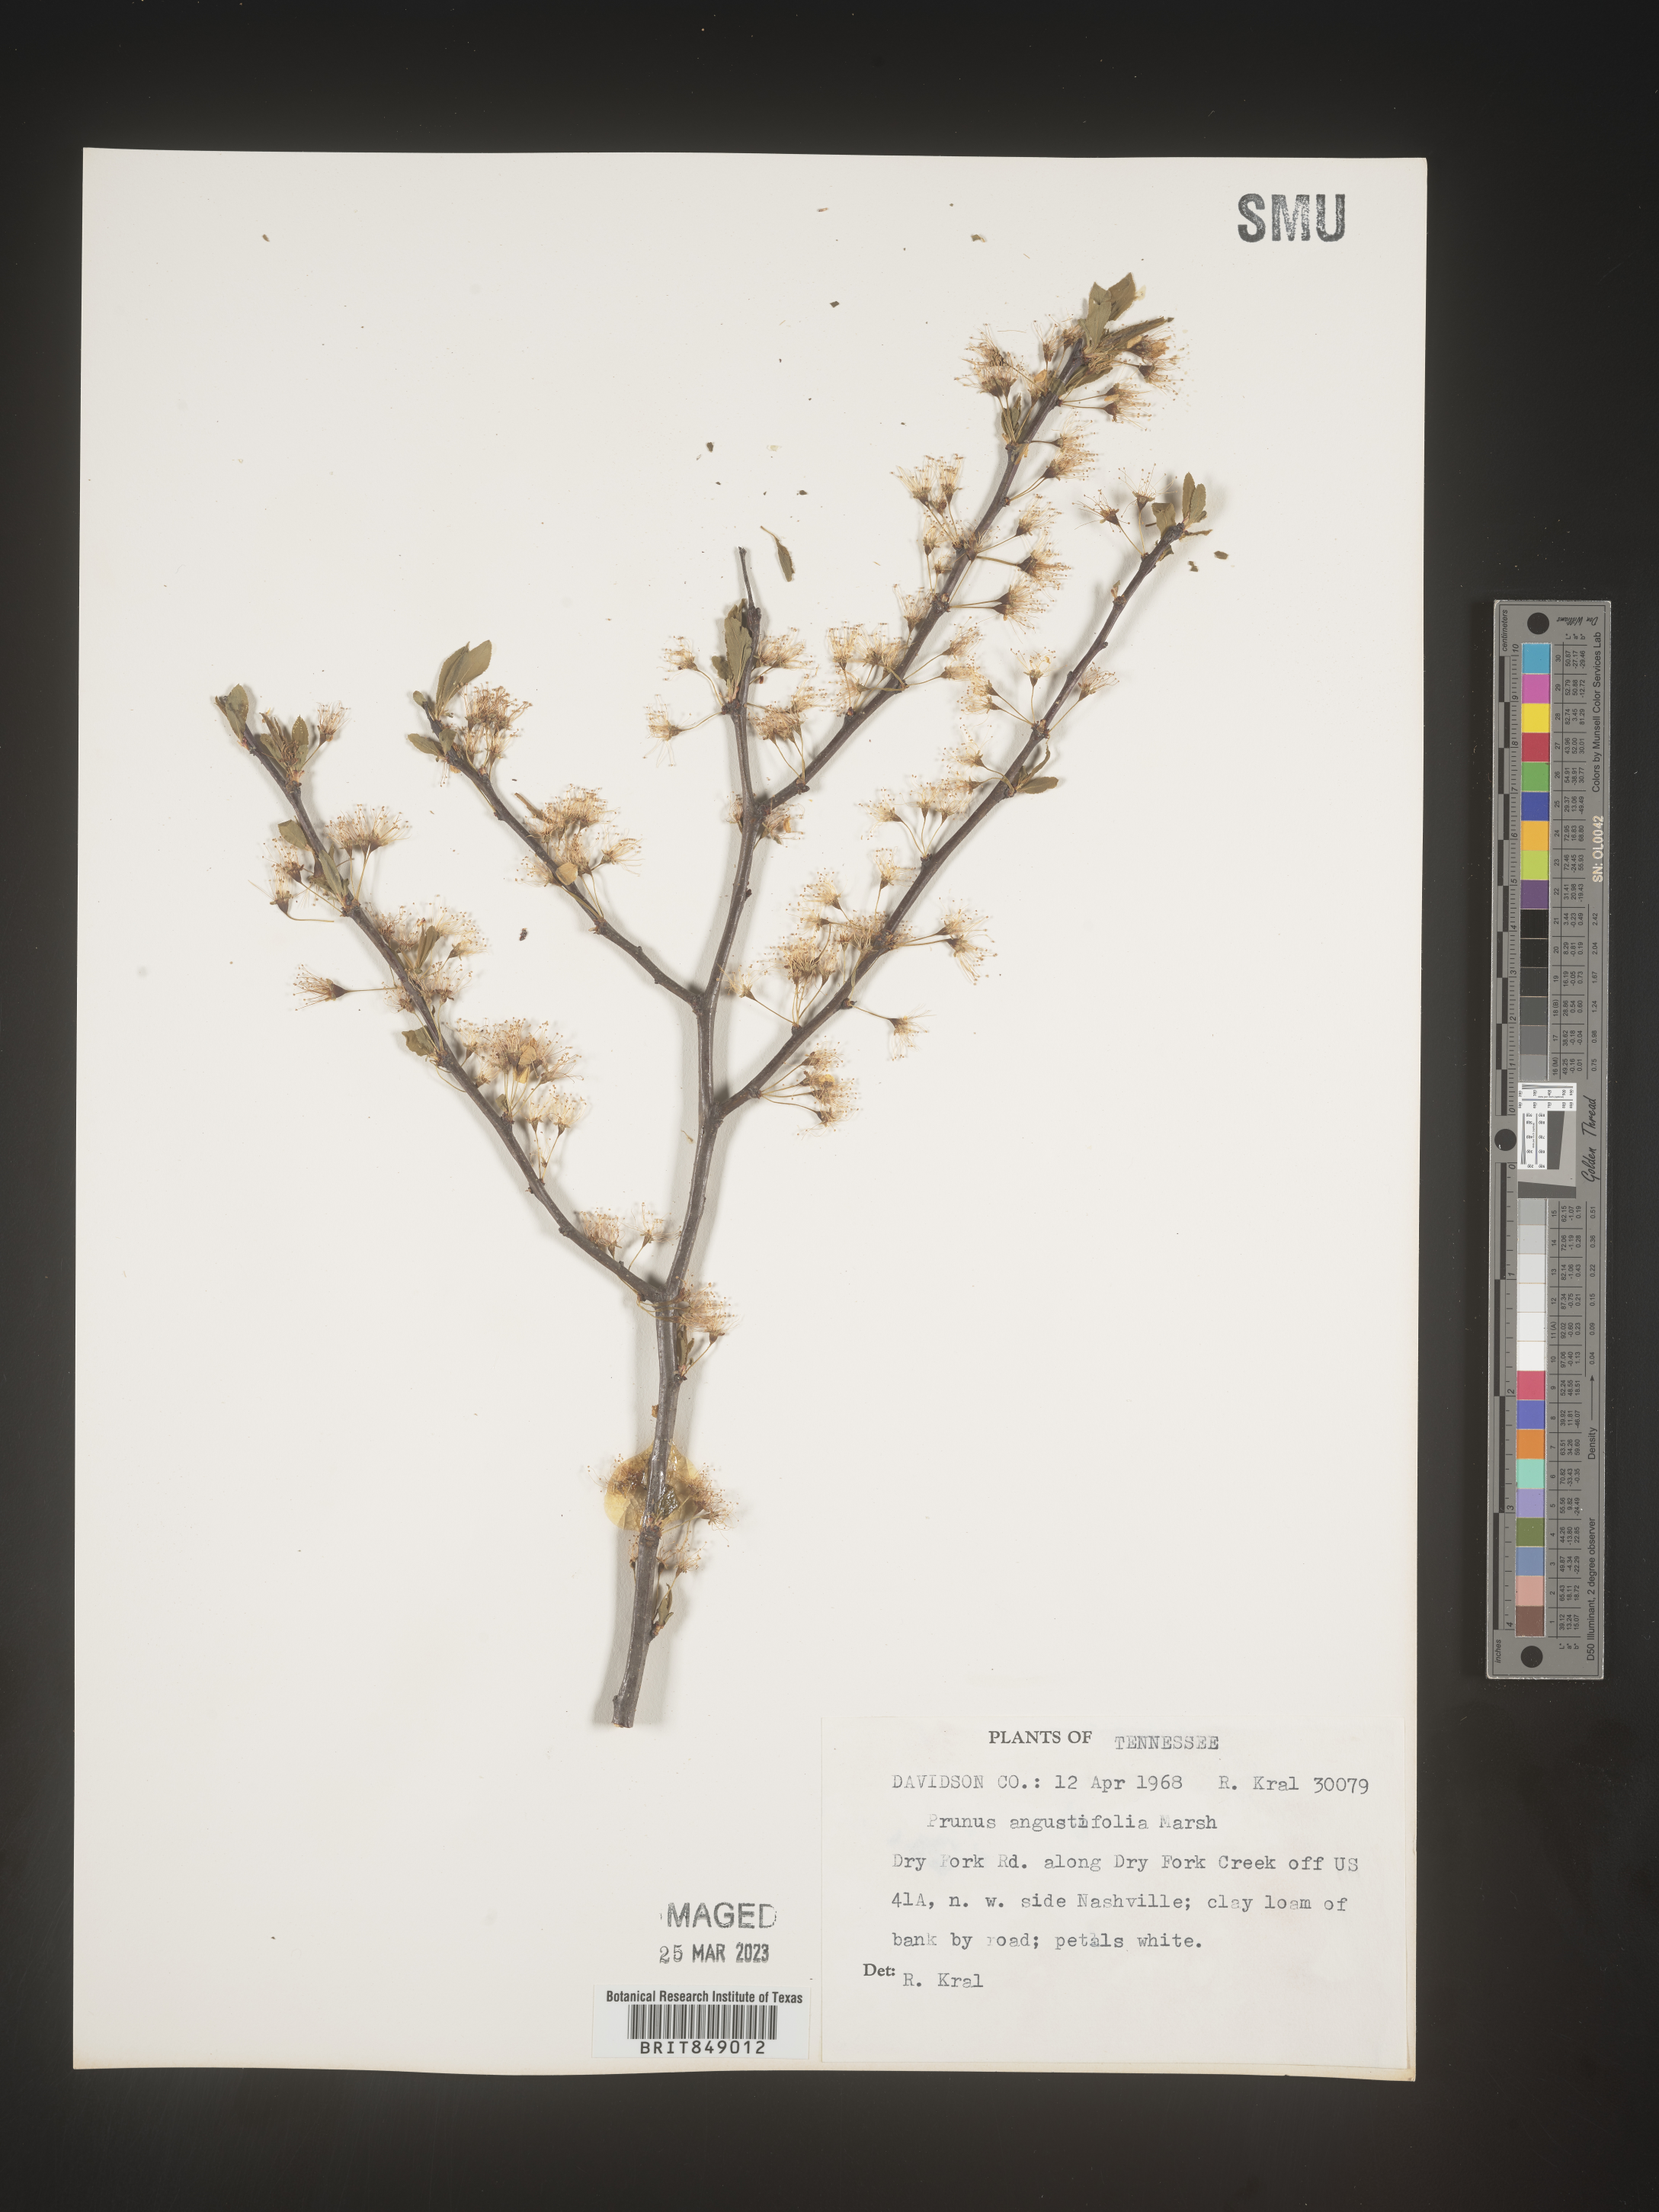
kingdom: Plantae
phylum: Tracheophyta
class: Magnoliopsida
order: Rosales
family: Rosaceae
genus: Prunus
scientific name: Prunus angustifolia
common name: Cherokee plum
